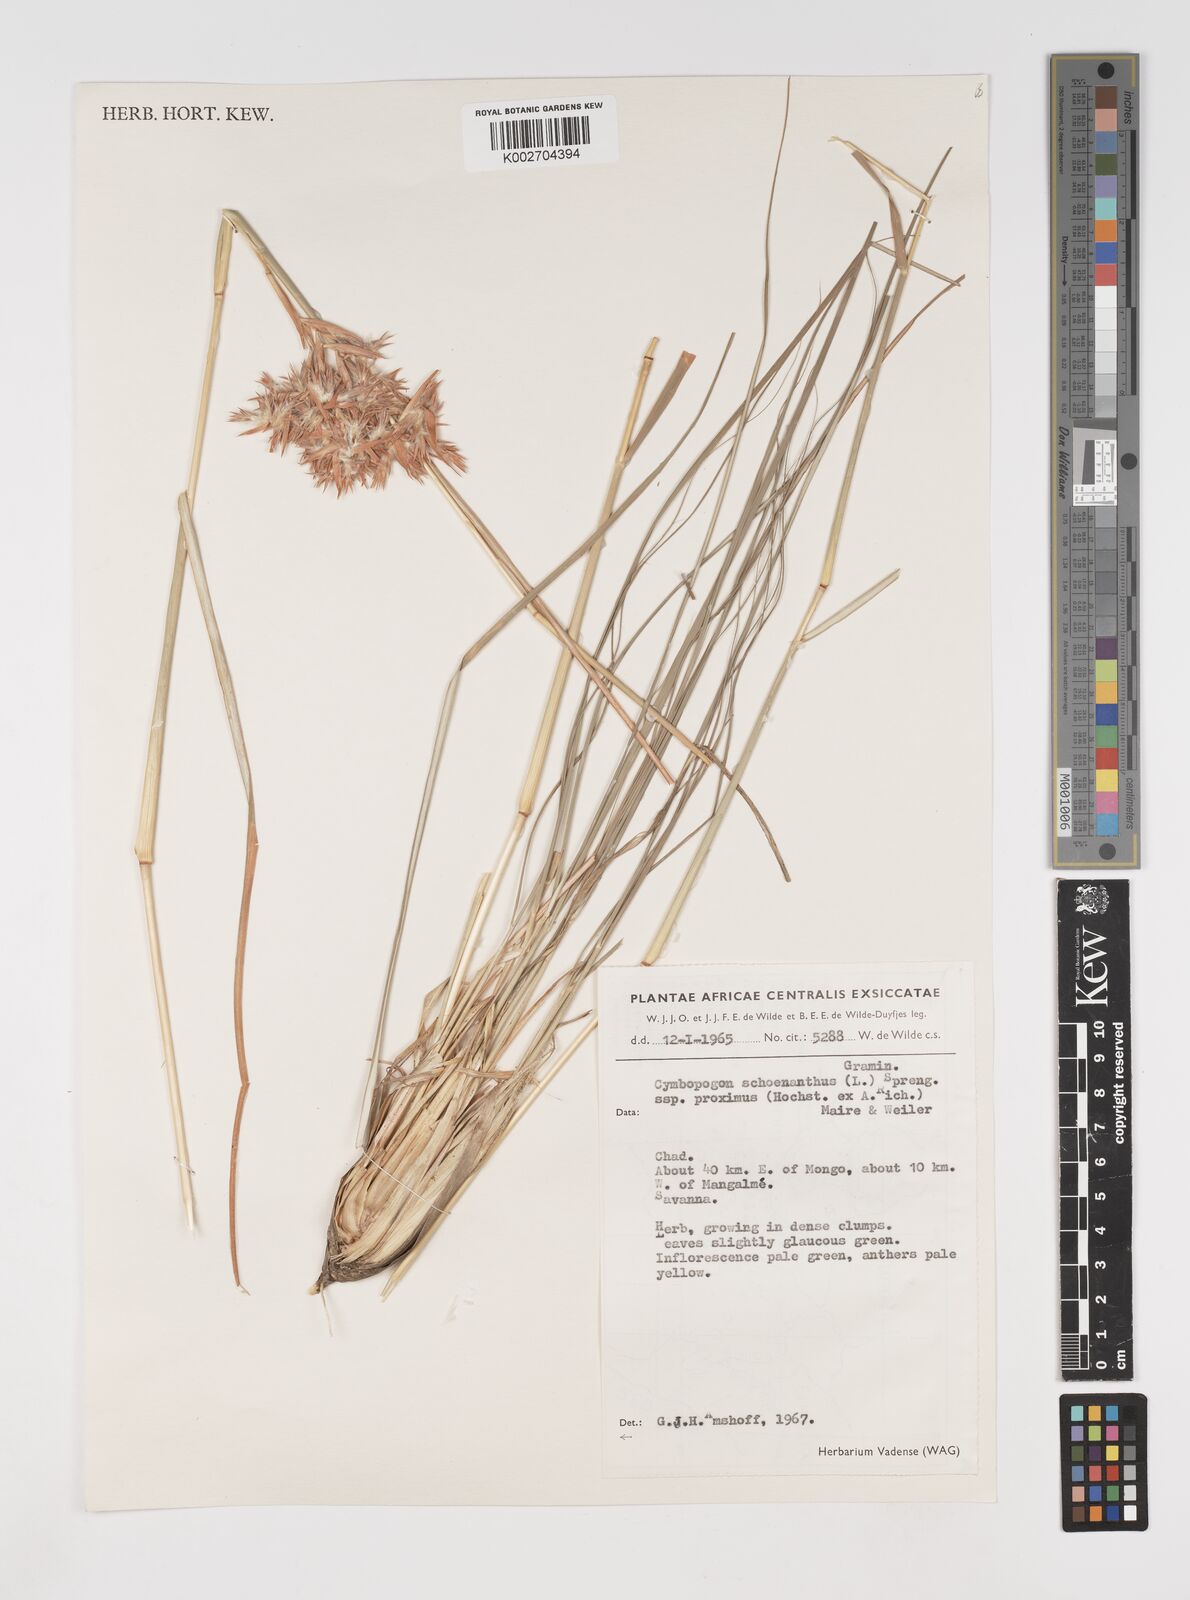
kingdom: Plantae
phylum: Tracheophyta
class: Liliopsida
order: Poales
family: Poaceae
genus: Cymbopogon
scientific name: Cymbopogon schoenanthus
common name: Geranium grass
